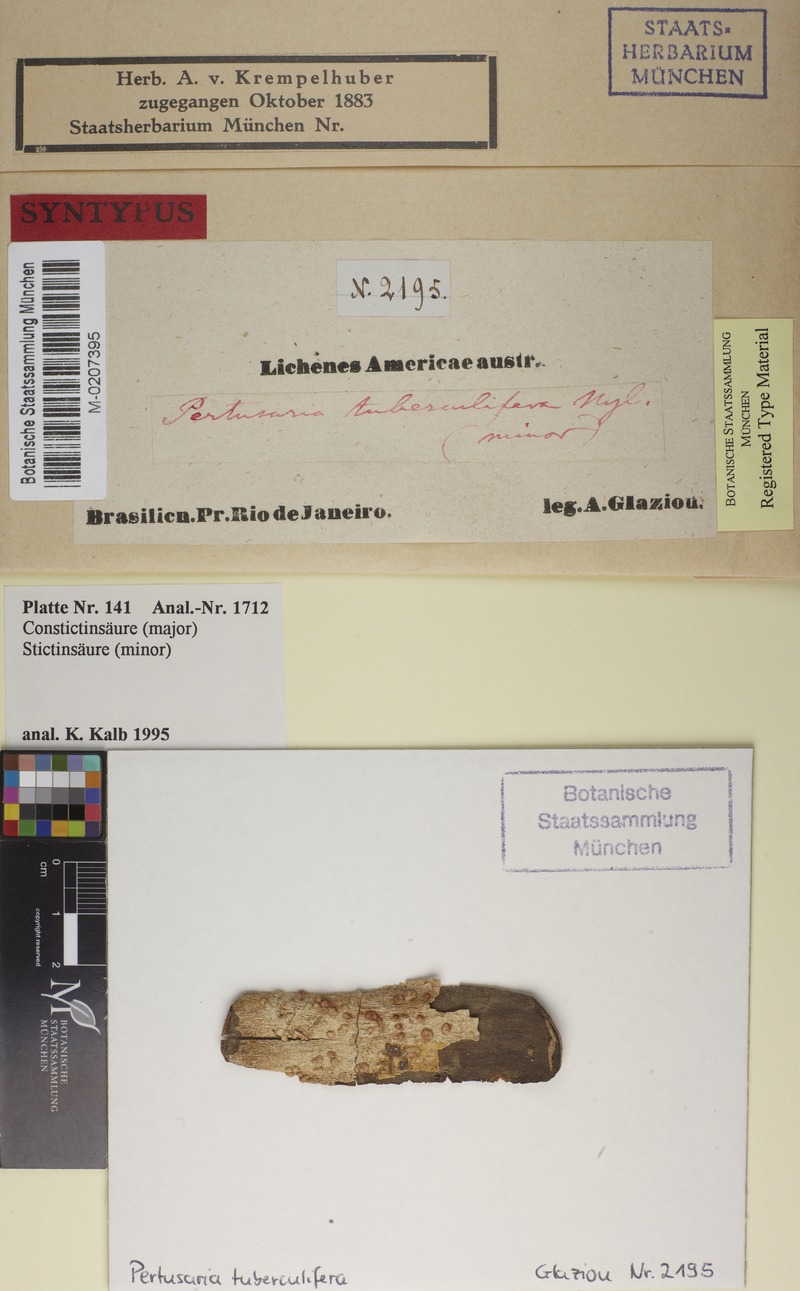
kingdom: Fungi
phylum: Ascomycota
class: Lecanoromycetes
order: Pertusariales
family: Pertusariaceae
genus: Pertusaria
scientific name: Pertusaria tuberculifera
